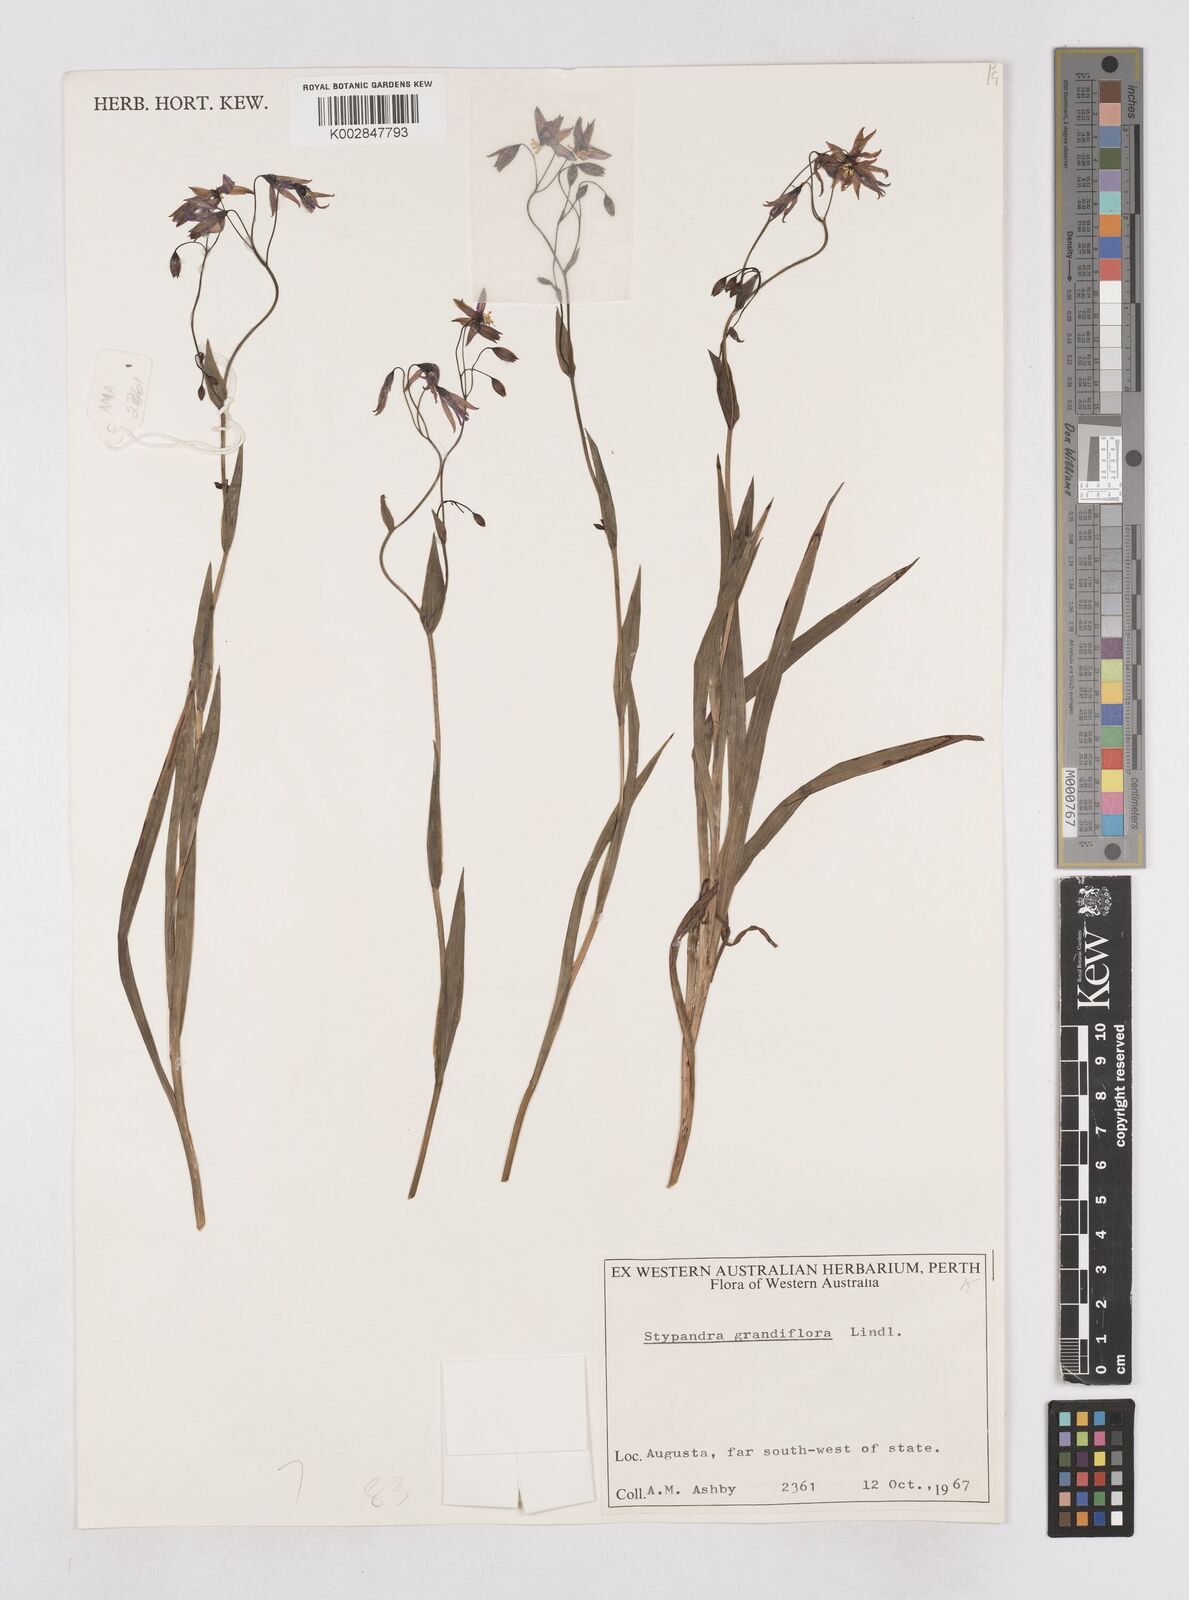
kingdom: Plantae
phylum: Tracheophyta
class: Liliopsida
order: Asparagales
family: Asphodelaceae
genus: Stypandra
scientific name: Stypandra glauca
